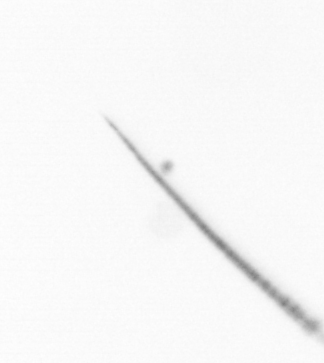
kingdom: Chromista
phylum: Ochrophyta
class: Bacillariophyceae
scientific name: Bacillariophyceae
